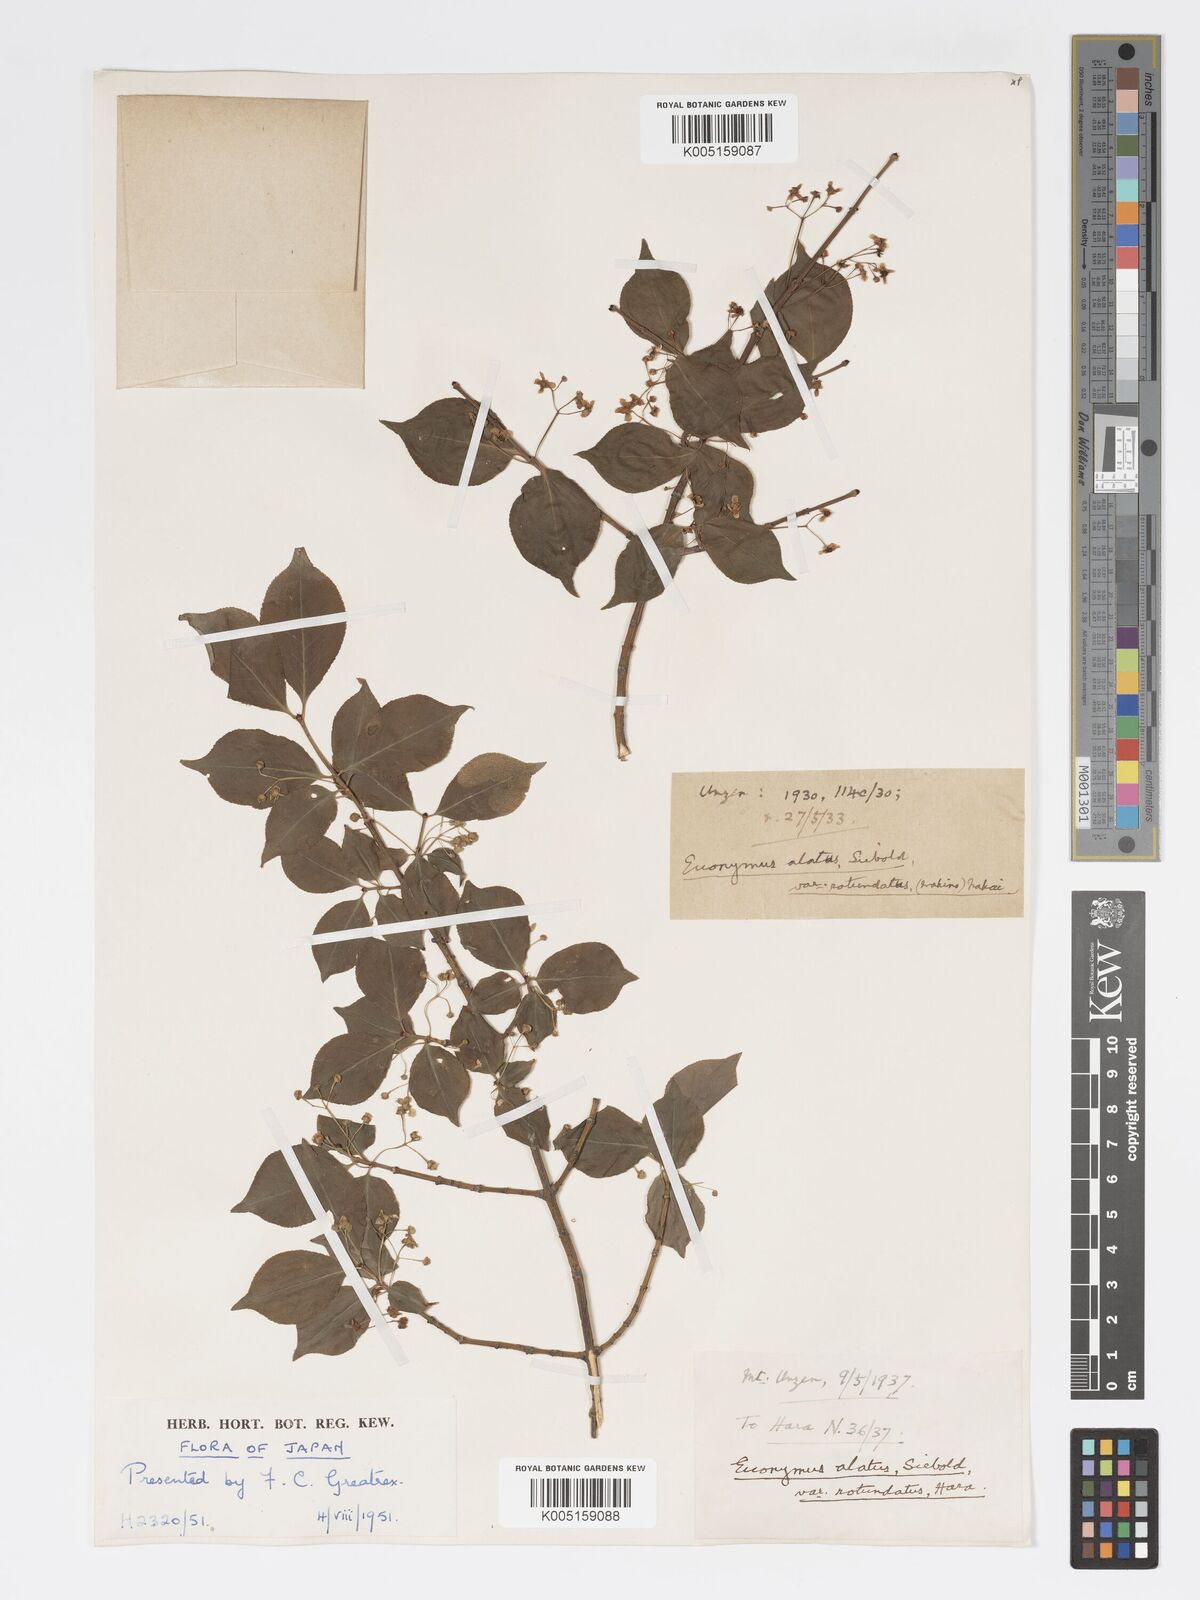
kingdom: Plantae
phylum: Tracheophyta
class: Magnoliopsida
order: Celastrales
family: Celastraceae
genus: Euonymus
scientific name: Euonymus
